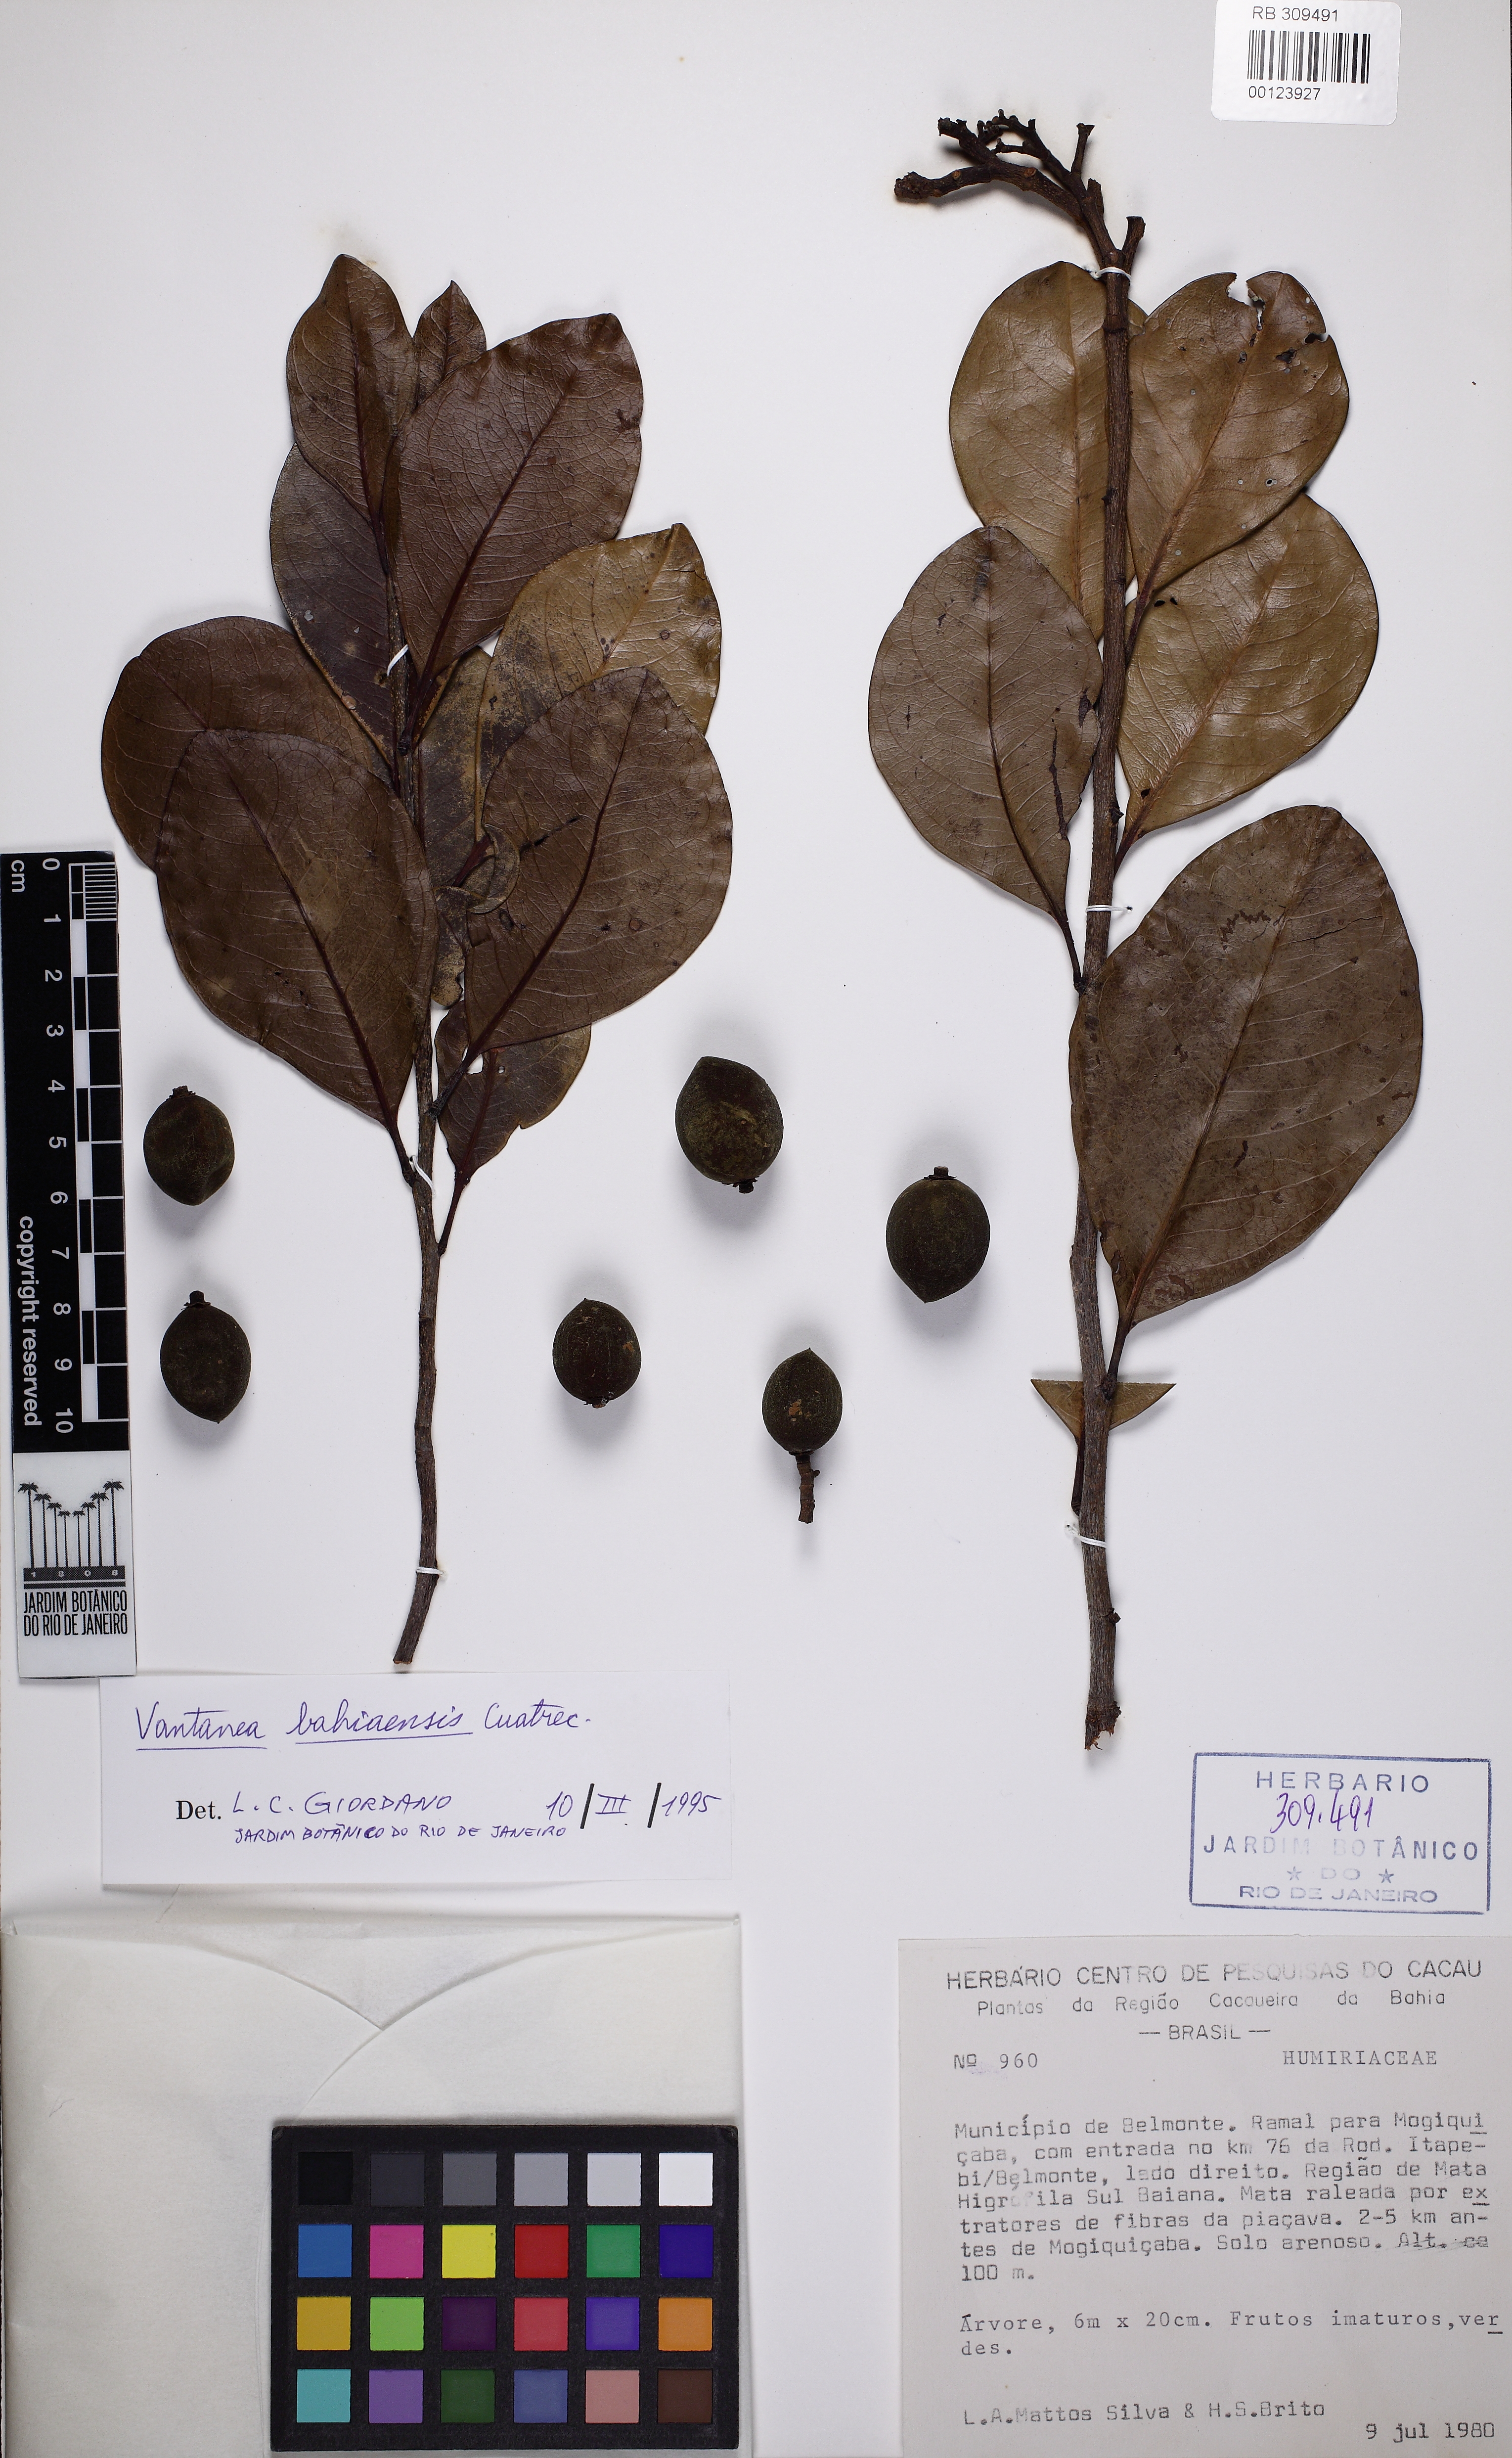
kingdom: Plantae
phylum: Tracheophyta
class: Magnoliopsida
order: Malpighiales
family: Humiriaceae
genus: Vantanea
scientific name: Vantanea bahiaensis
